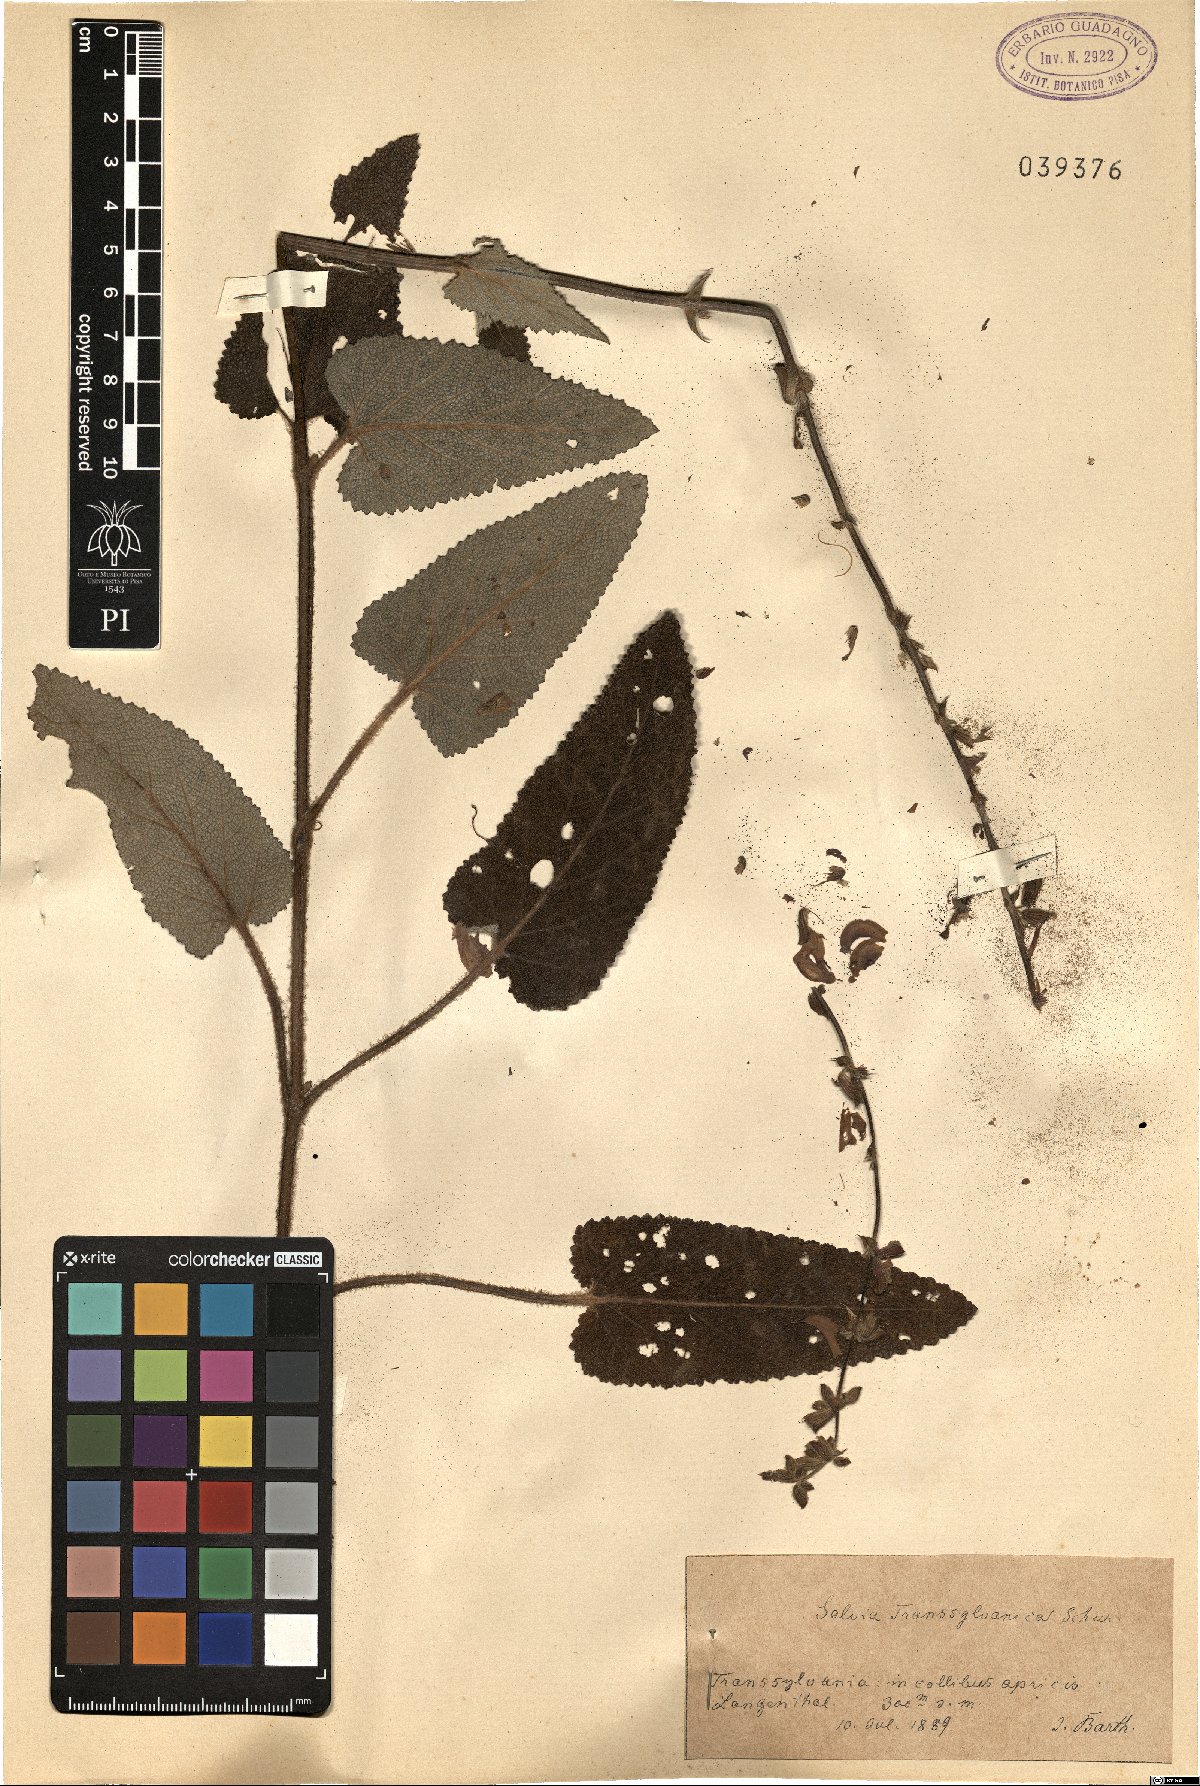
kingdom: Plantae
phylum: Tracheophyta
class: Magnoliopsida
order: Lamiales
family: Lamiaceae
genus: Salvia
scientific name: Salvia transsylvanica
